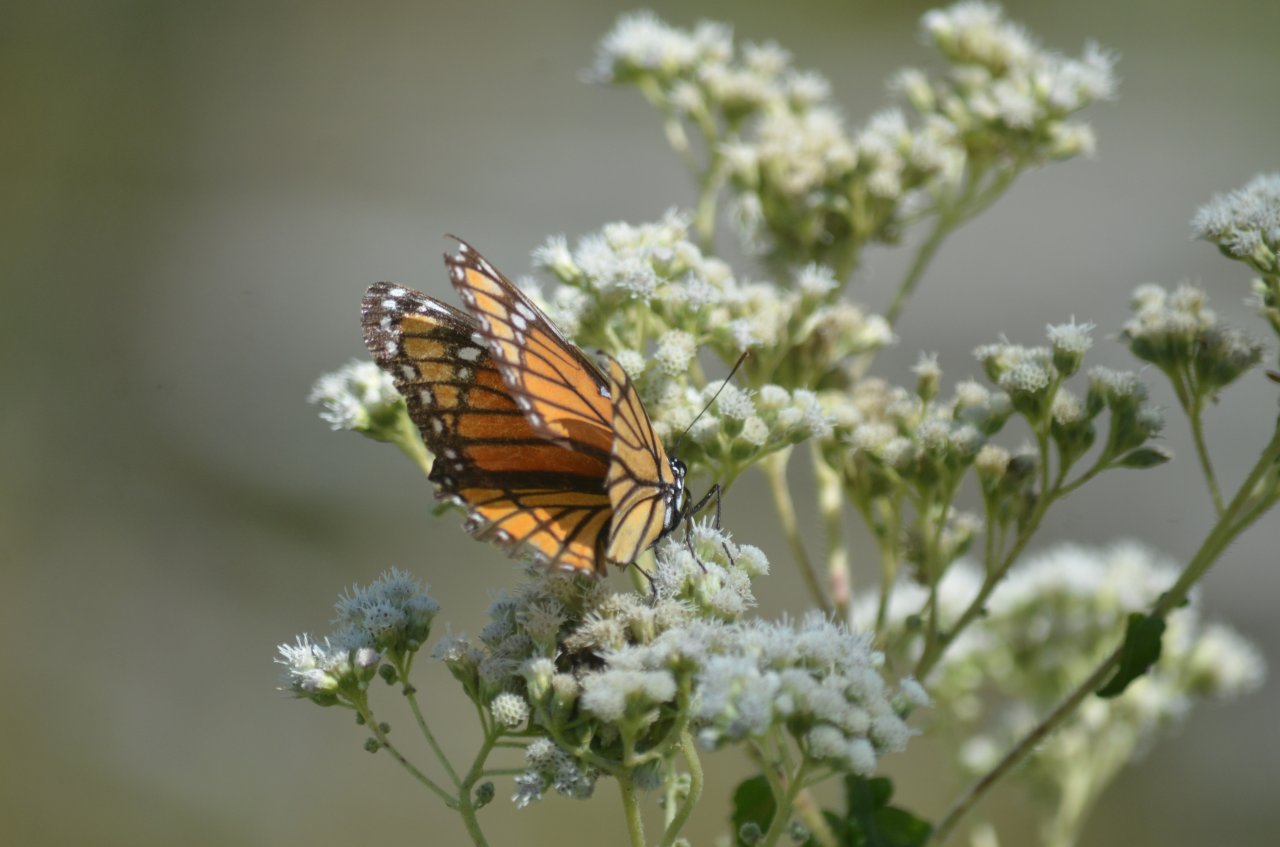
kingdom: Animalia
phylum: Arthropoda
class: Insecta
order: Lepidoptera
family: Nymphalidae
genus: Limenitis
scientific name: Limenitis archippus
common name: Viceroy
